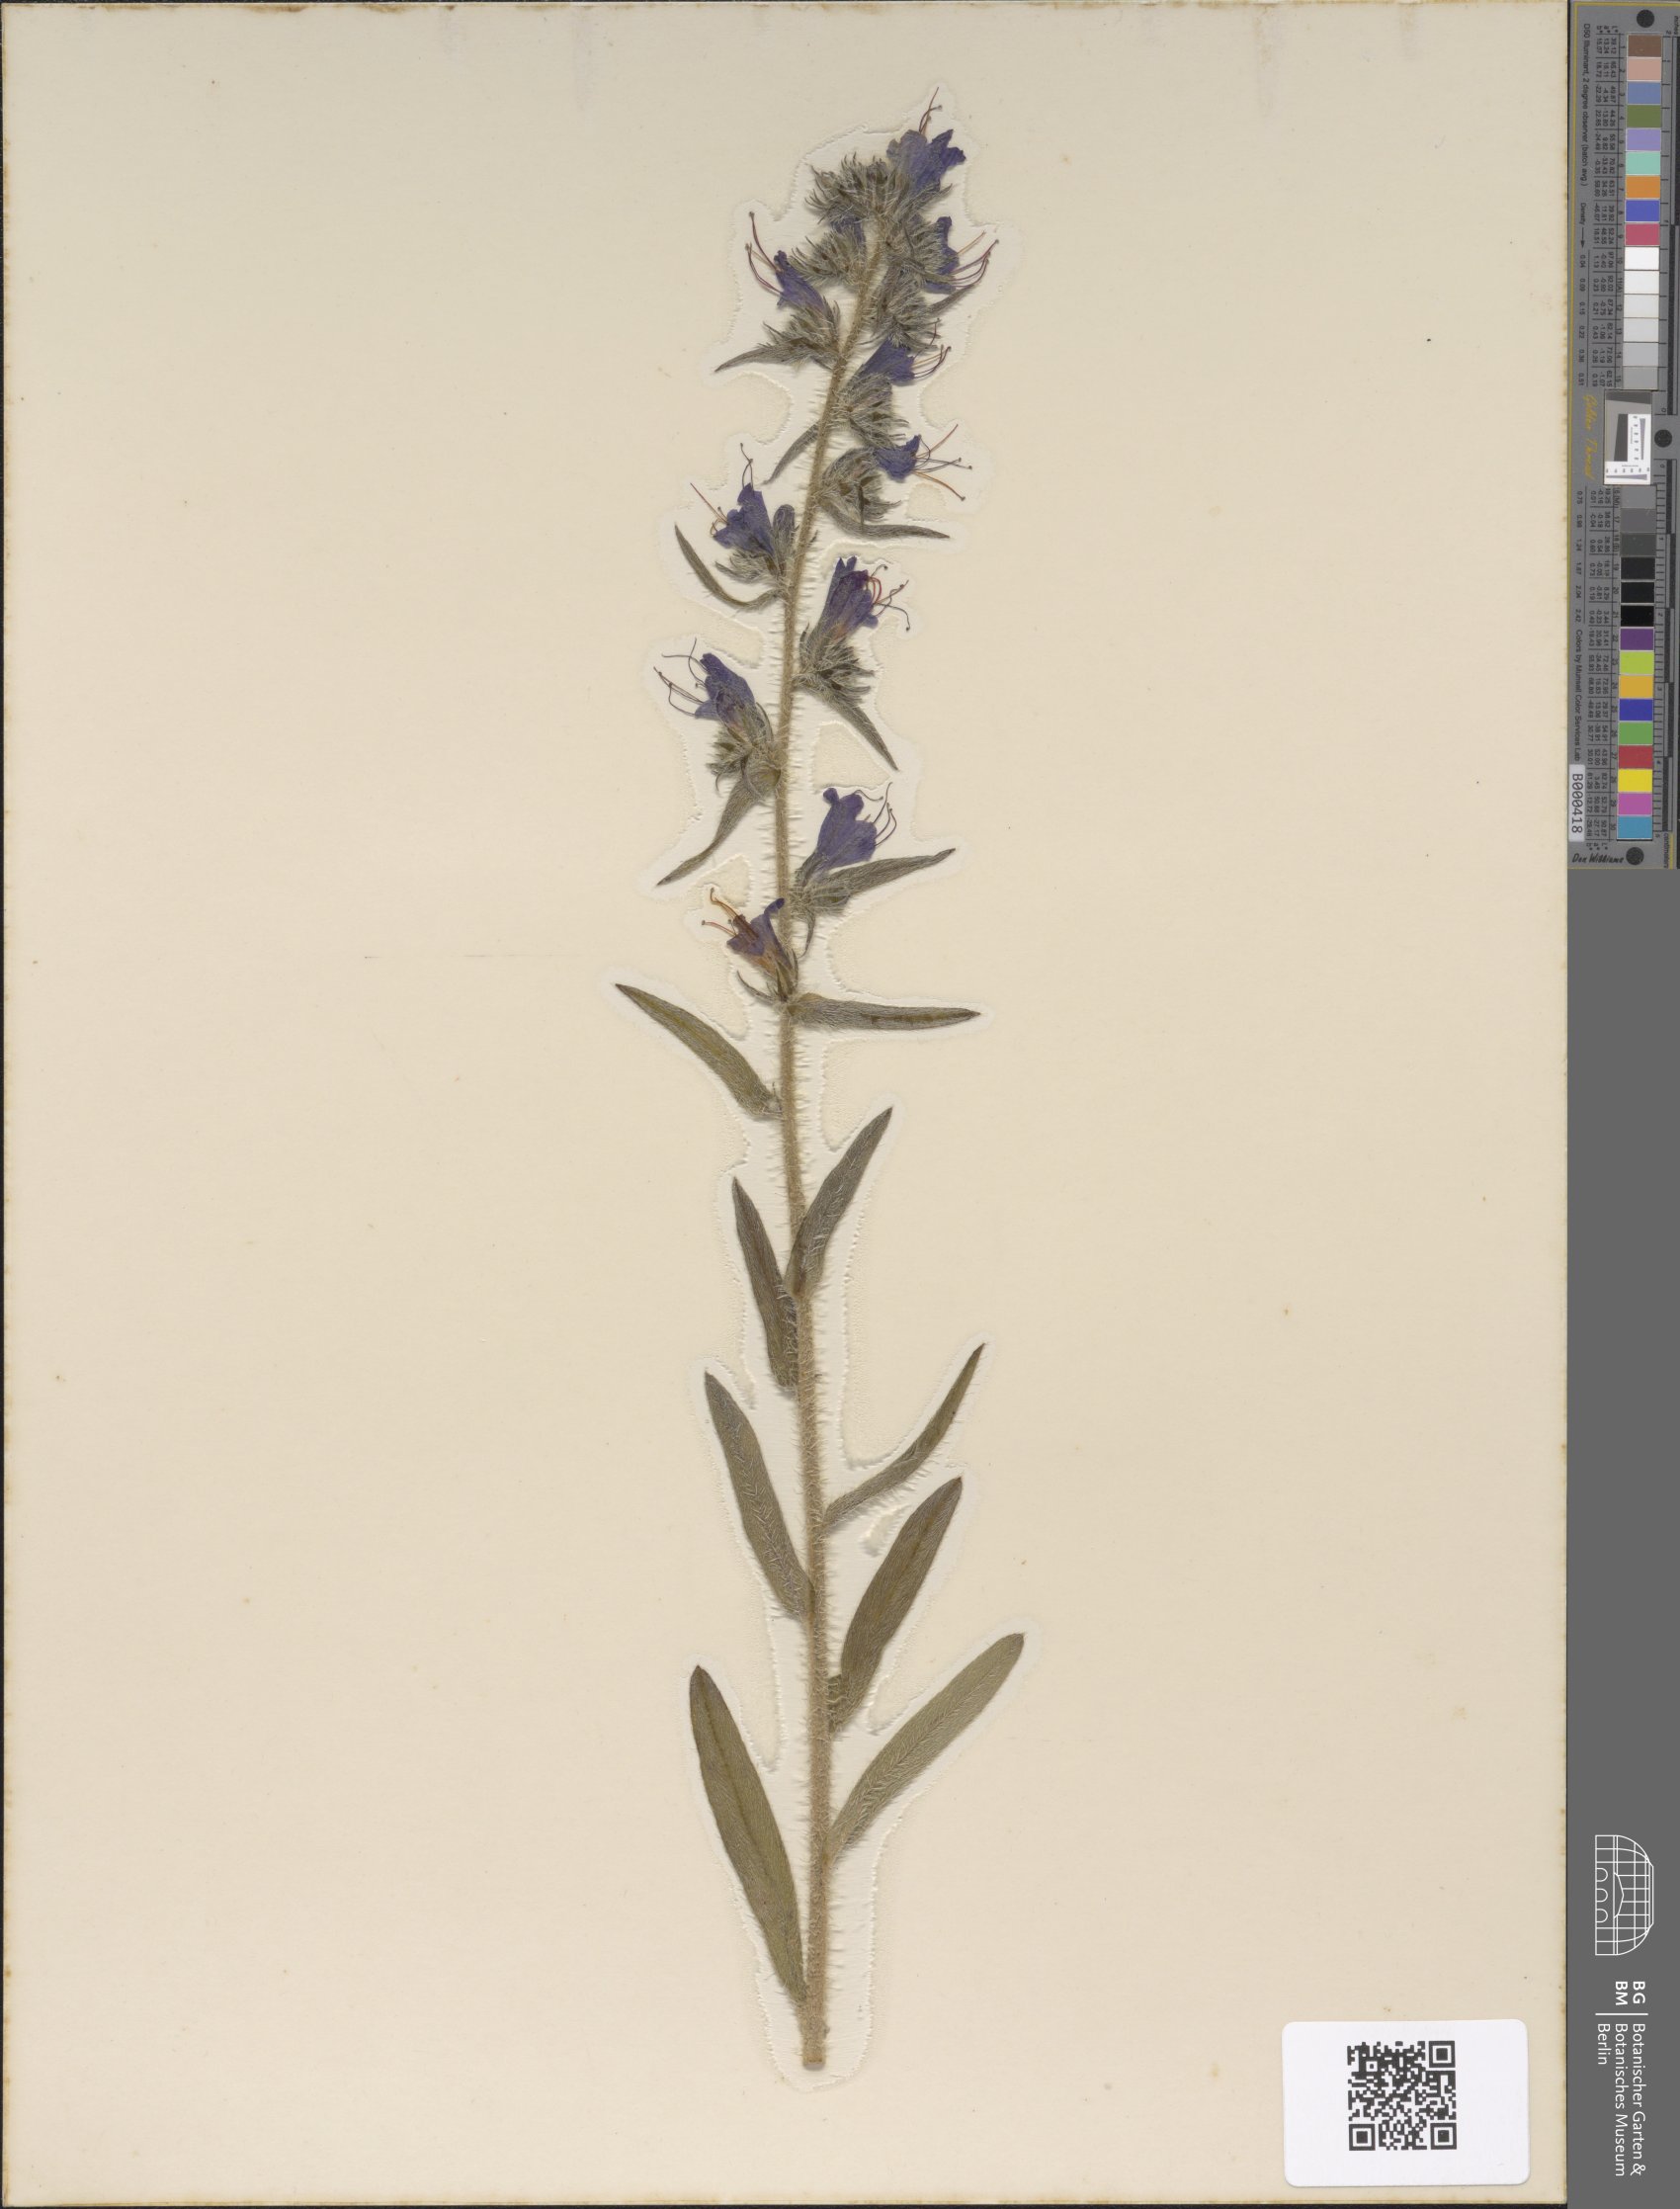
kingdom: Plantae
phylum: Tracheophyta
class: Magnoliopsida
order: Boraginales
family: Boraginaceae
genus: Echium
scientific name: Echium vulgare
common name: Common viper's bugloss
